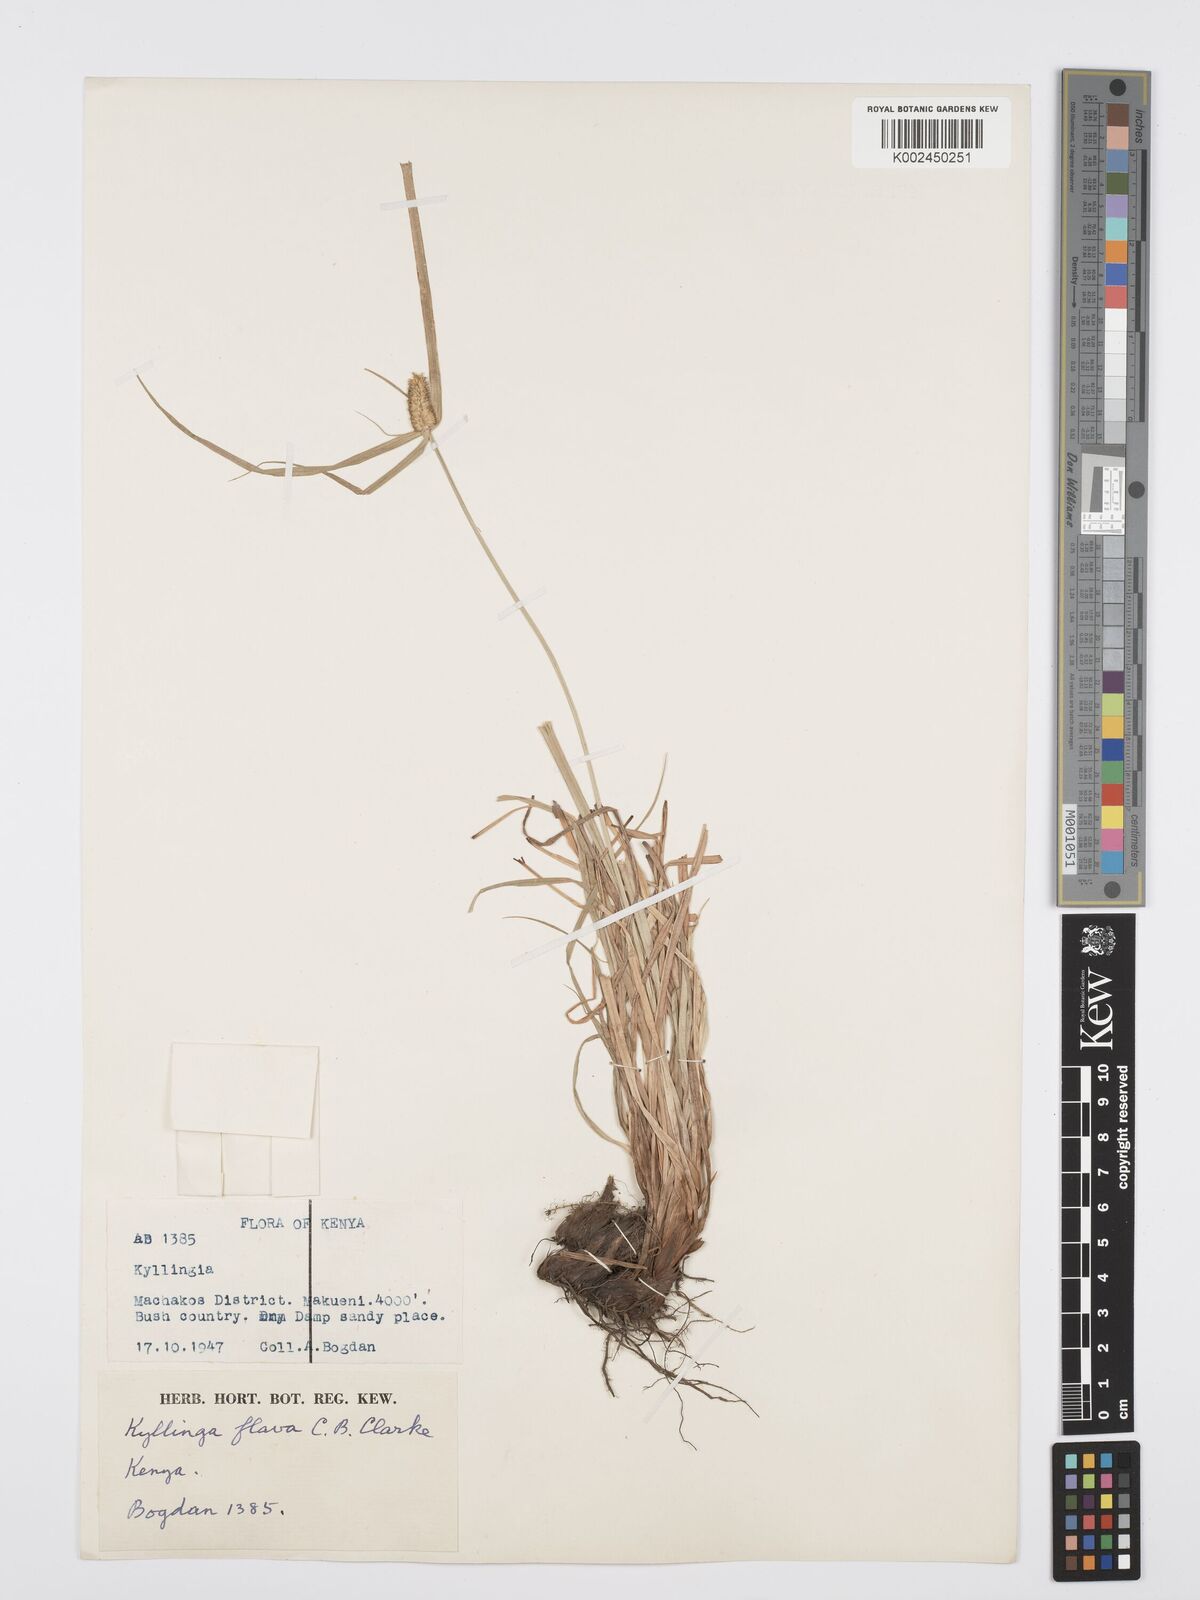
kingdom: Plantae
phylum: Tracheophyta
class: Liliopsida
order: Poales
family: Cyperaceae
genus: Cyperus
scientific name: Cyperus
